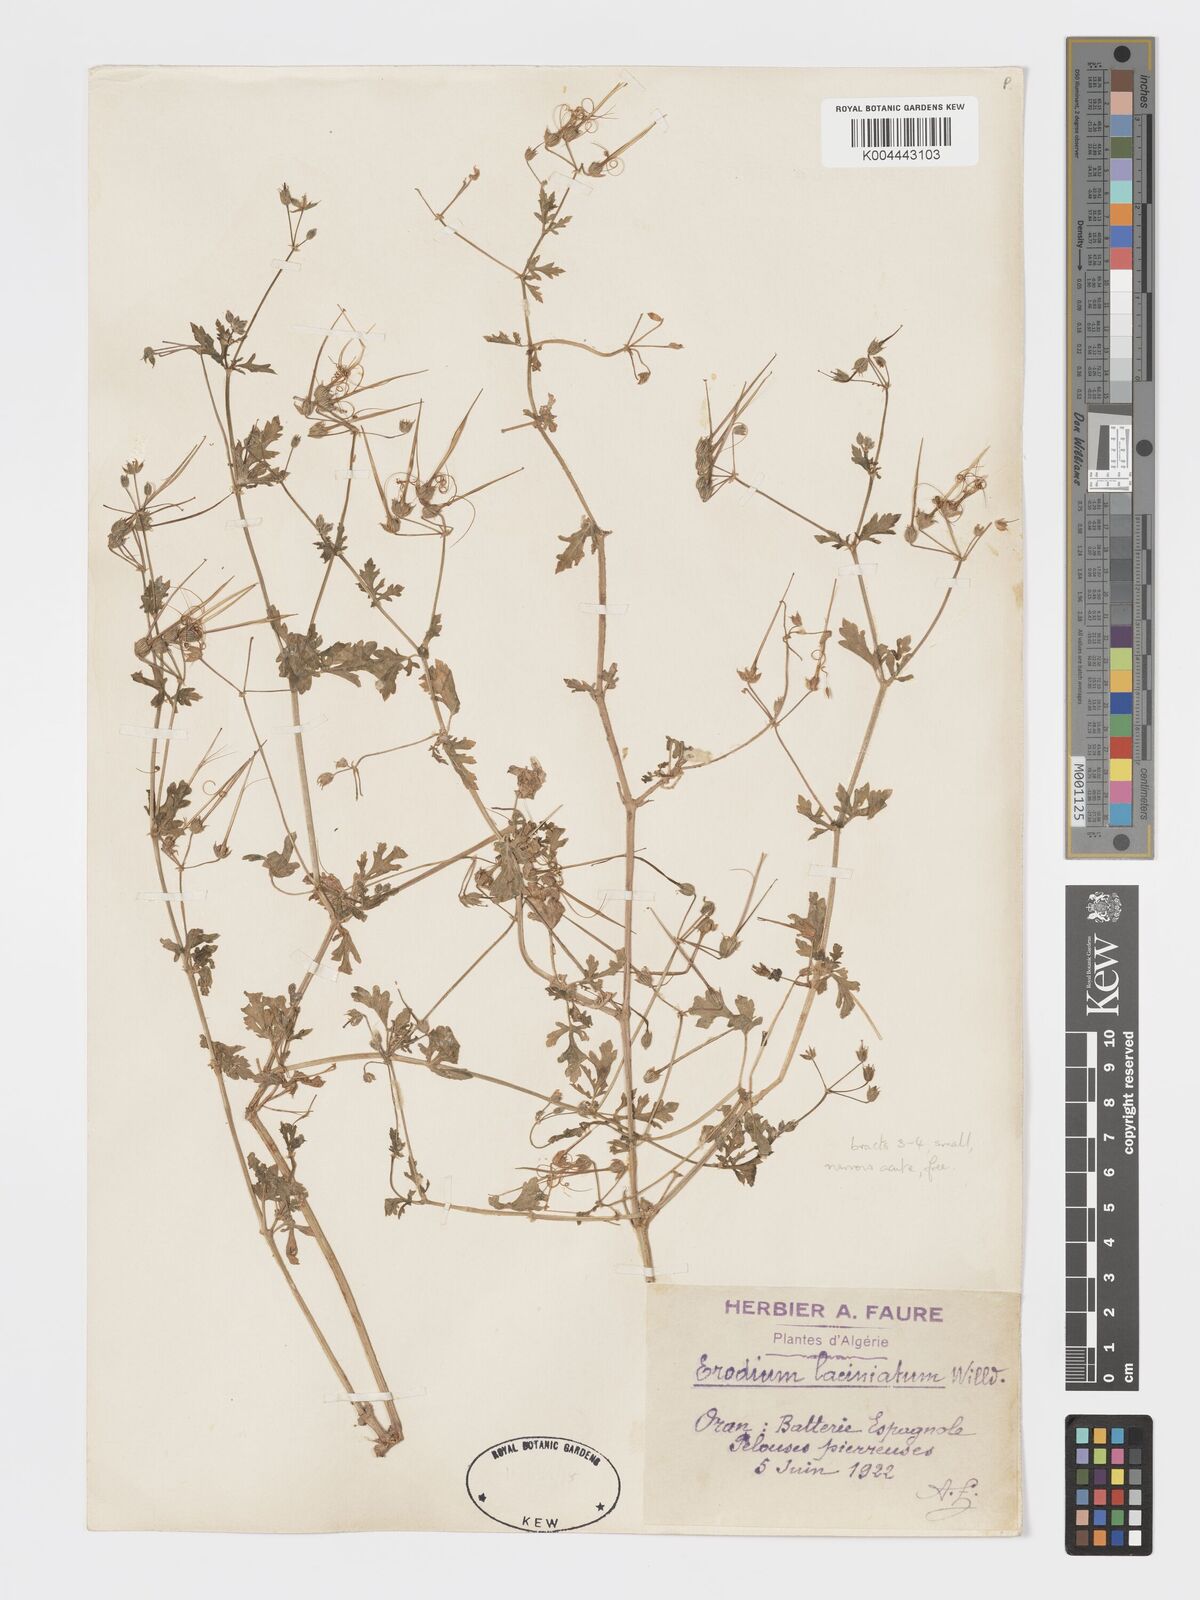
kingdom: Plantae
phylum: Tracheophyta
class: Magnoliopsida
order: Geraniales
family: Geraniaceae
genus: Erodium
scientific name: Erodium laciniatum
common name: Cutleaf stork's bill
